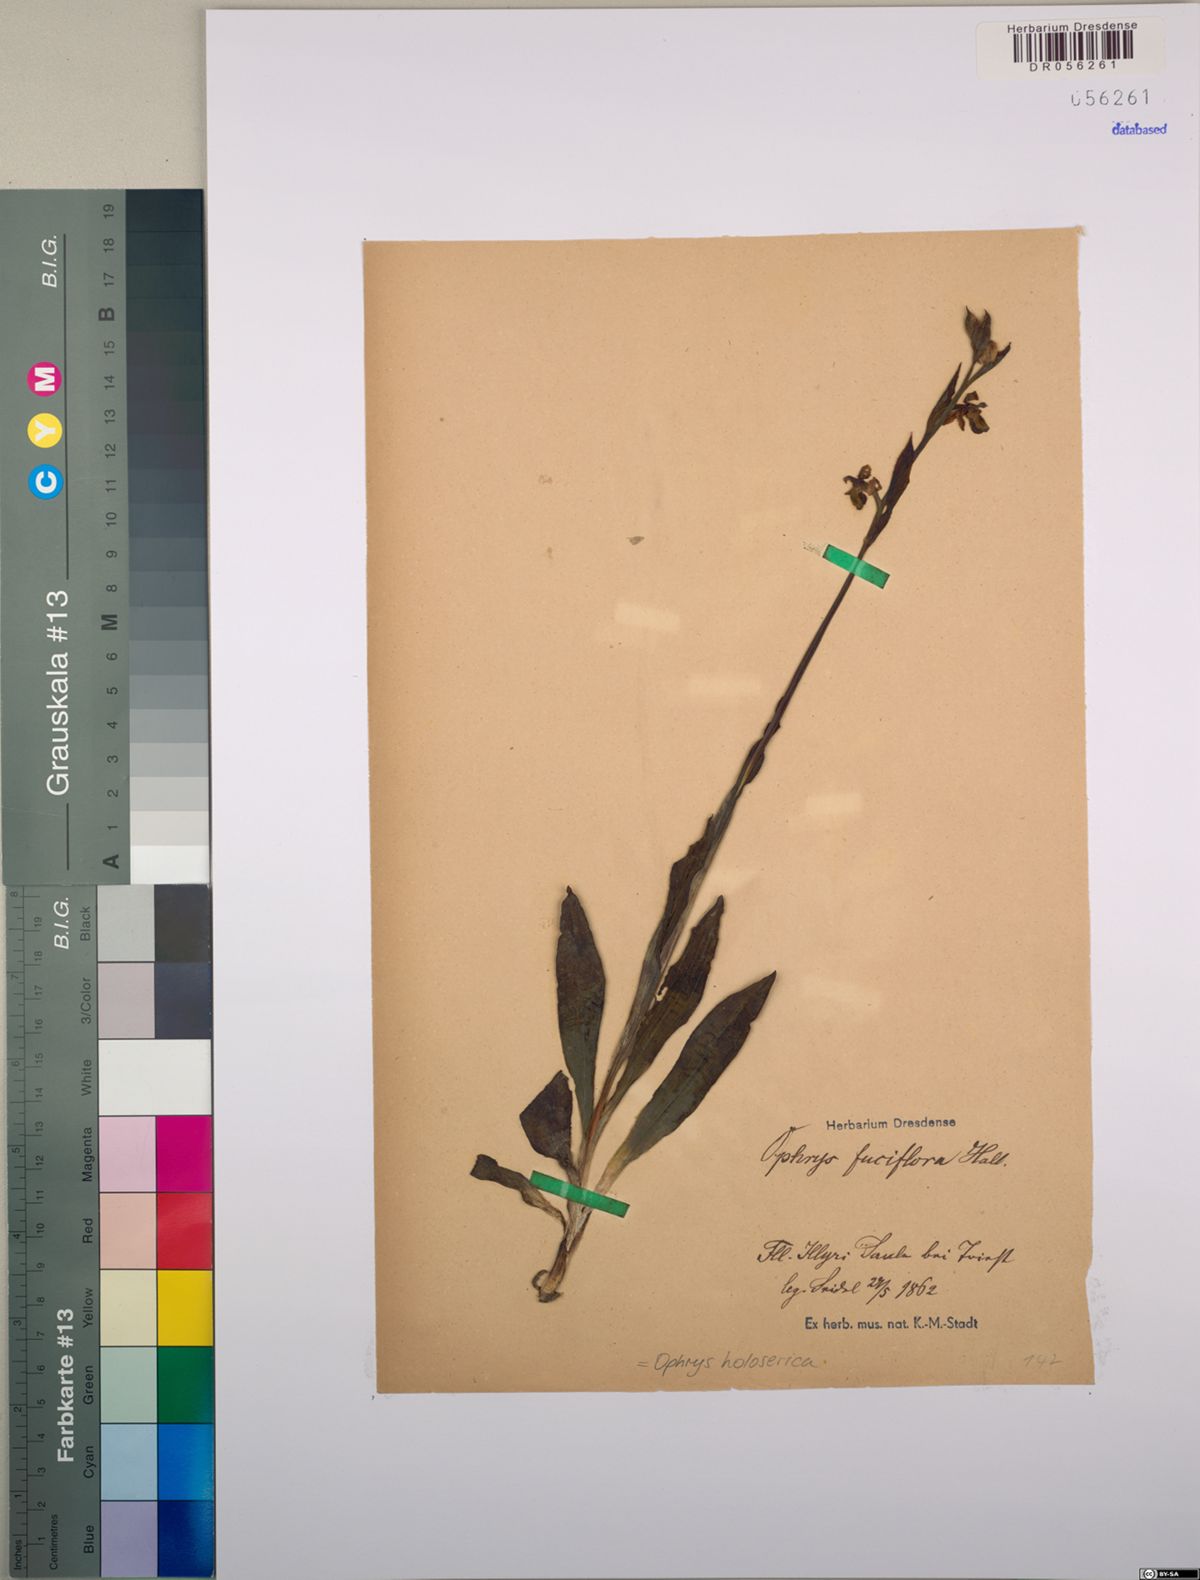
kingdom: Plantae
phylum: Tracheophyta
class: Liliopsida
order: Asparagales
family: Orchidaceae
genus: Ophrys
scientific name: Ophrys holosericea
